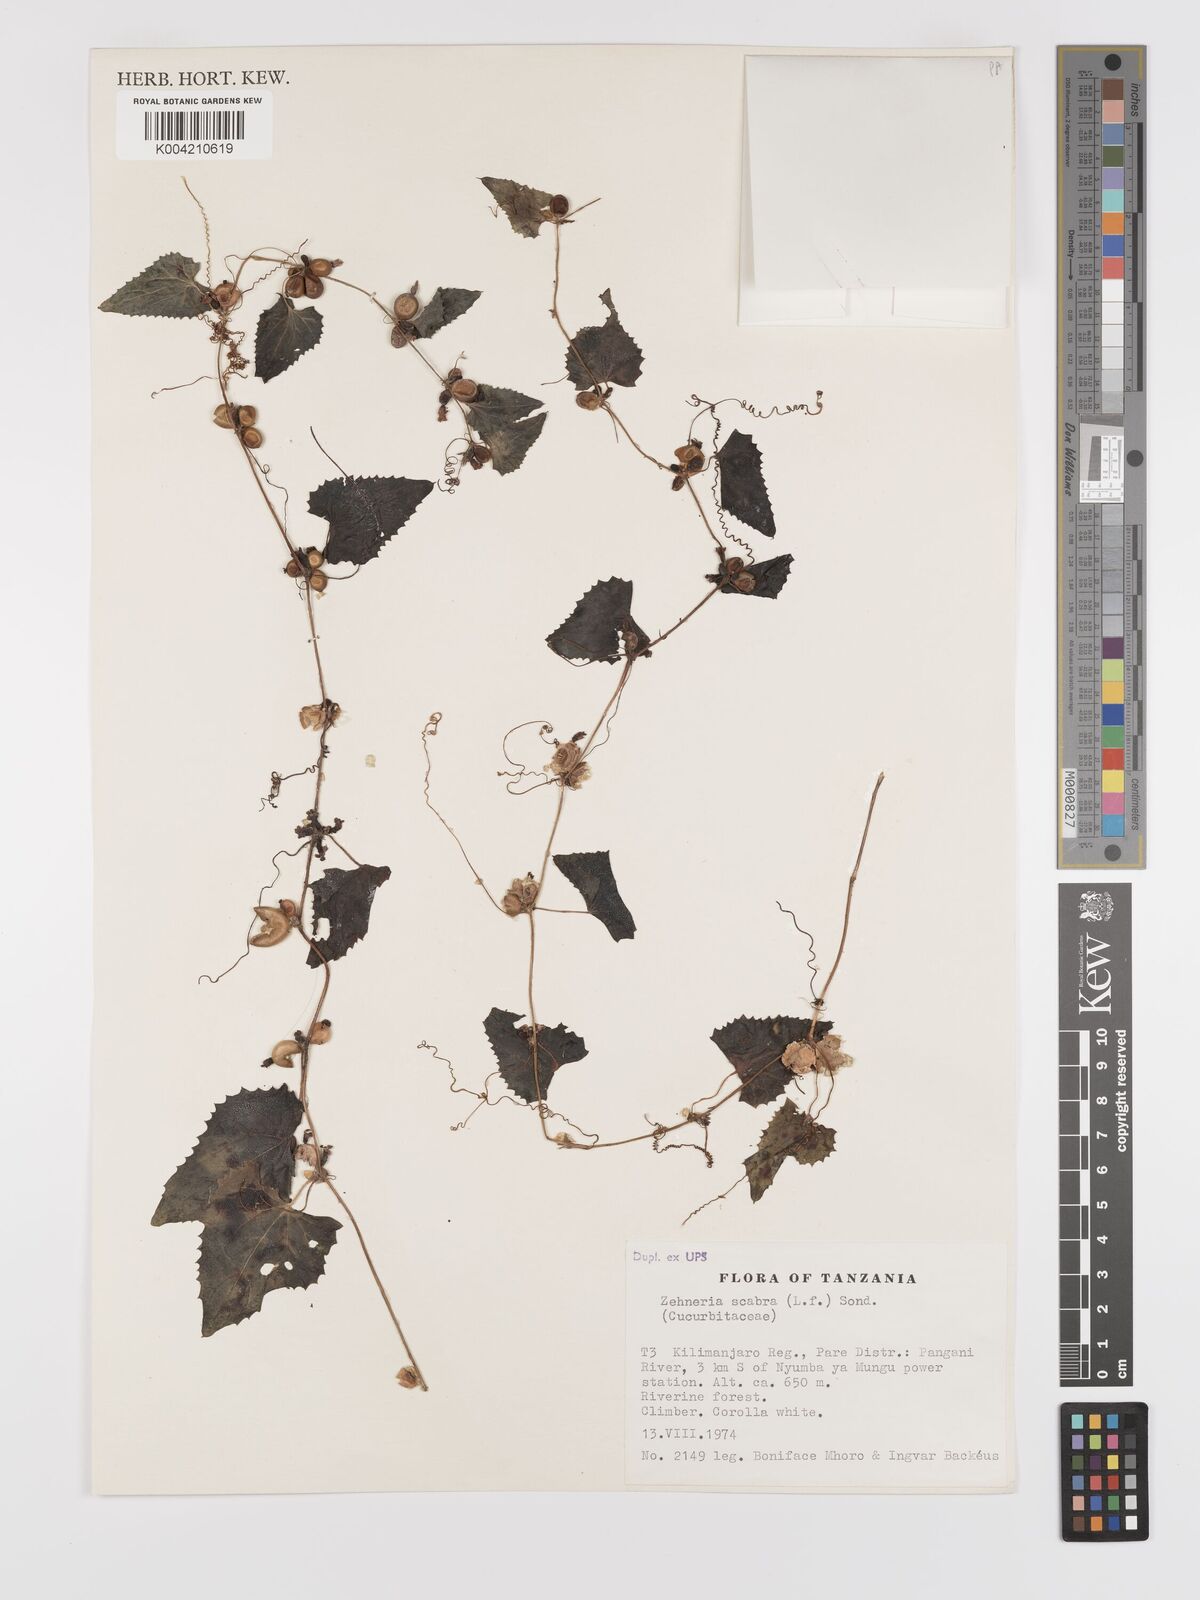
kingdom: Plantae
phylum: Tracheophyta
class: Magnoliopsida
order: Cucurbitales
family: Cucurbitaceae
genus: Zehneria
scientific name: Zehneria scabra
